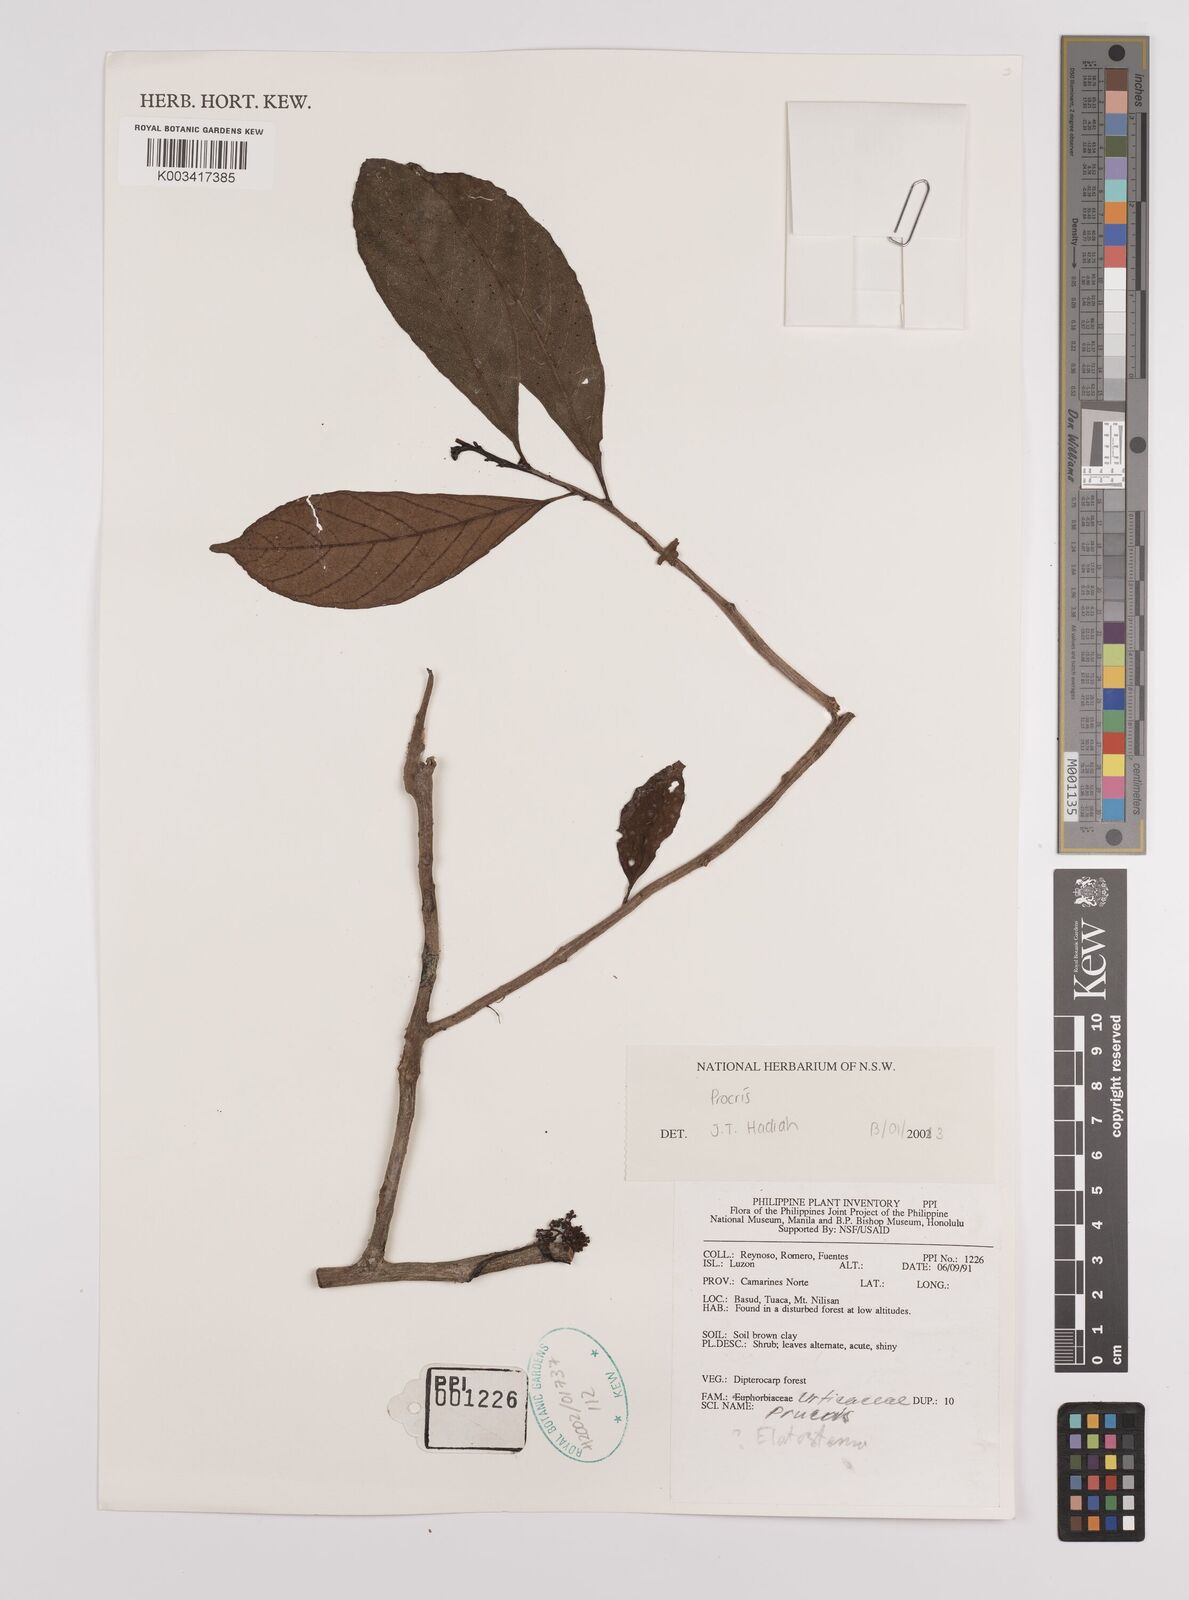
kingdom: Plantae
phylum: Tracheophyta
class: Magnoliopsida
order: Rosales
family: Urticaceae
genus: Procris
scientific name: Procris
